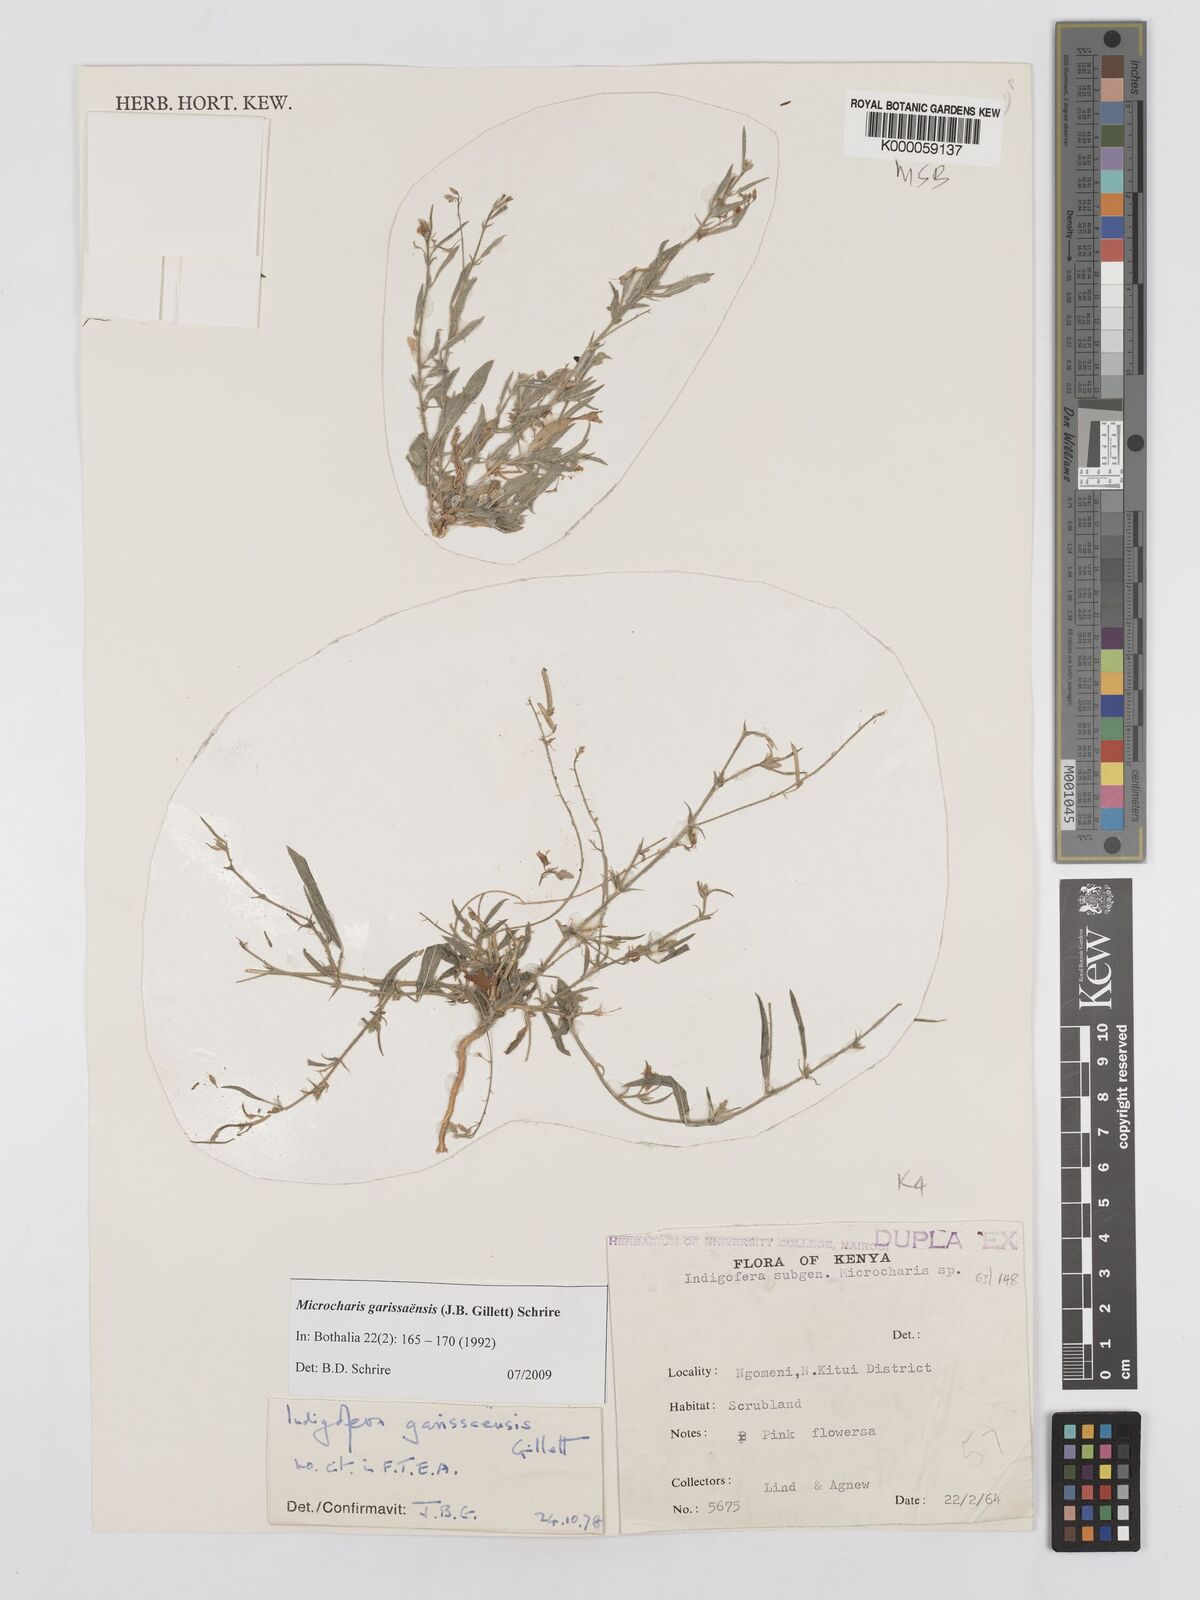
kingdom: Plantae
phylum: Tracheophyta
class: Magnoliopsida
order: Fabales
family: Fabaceae
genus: Microcharis
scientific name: Microcharis garissaensis
